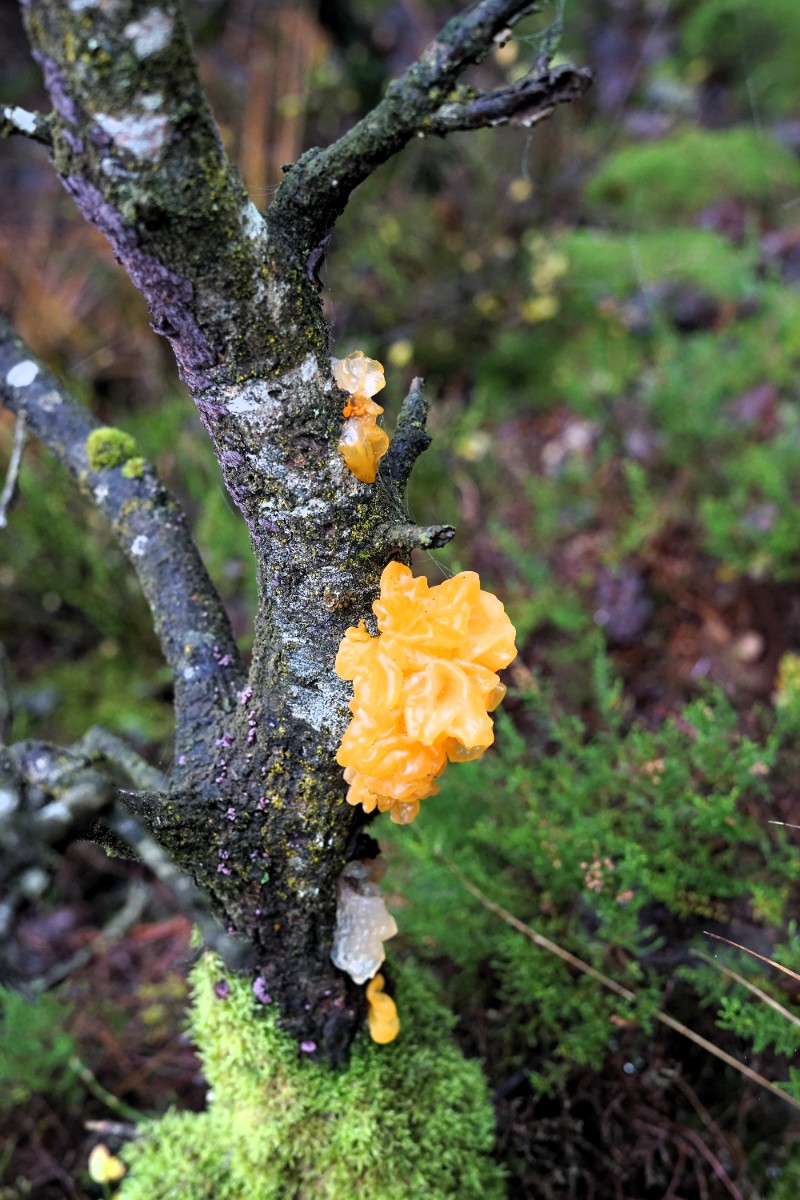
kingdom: Fungi
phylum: Basidiomycota
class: Tremellomycetes
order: Tremellales
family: Tremellaceae
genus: Tremella
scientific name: Tremella mesenterica
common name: gul bævresvamp
